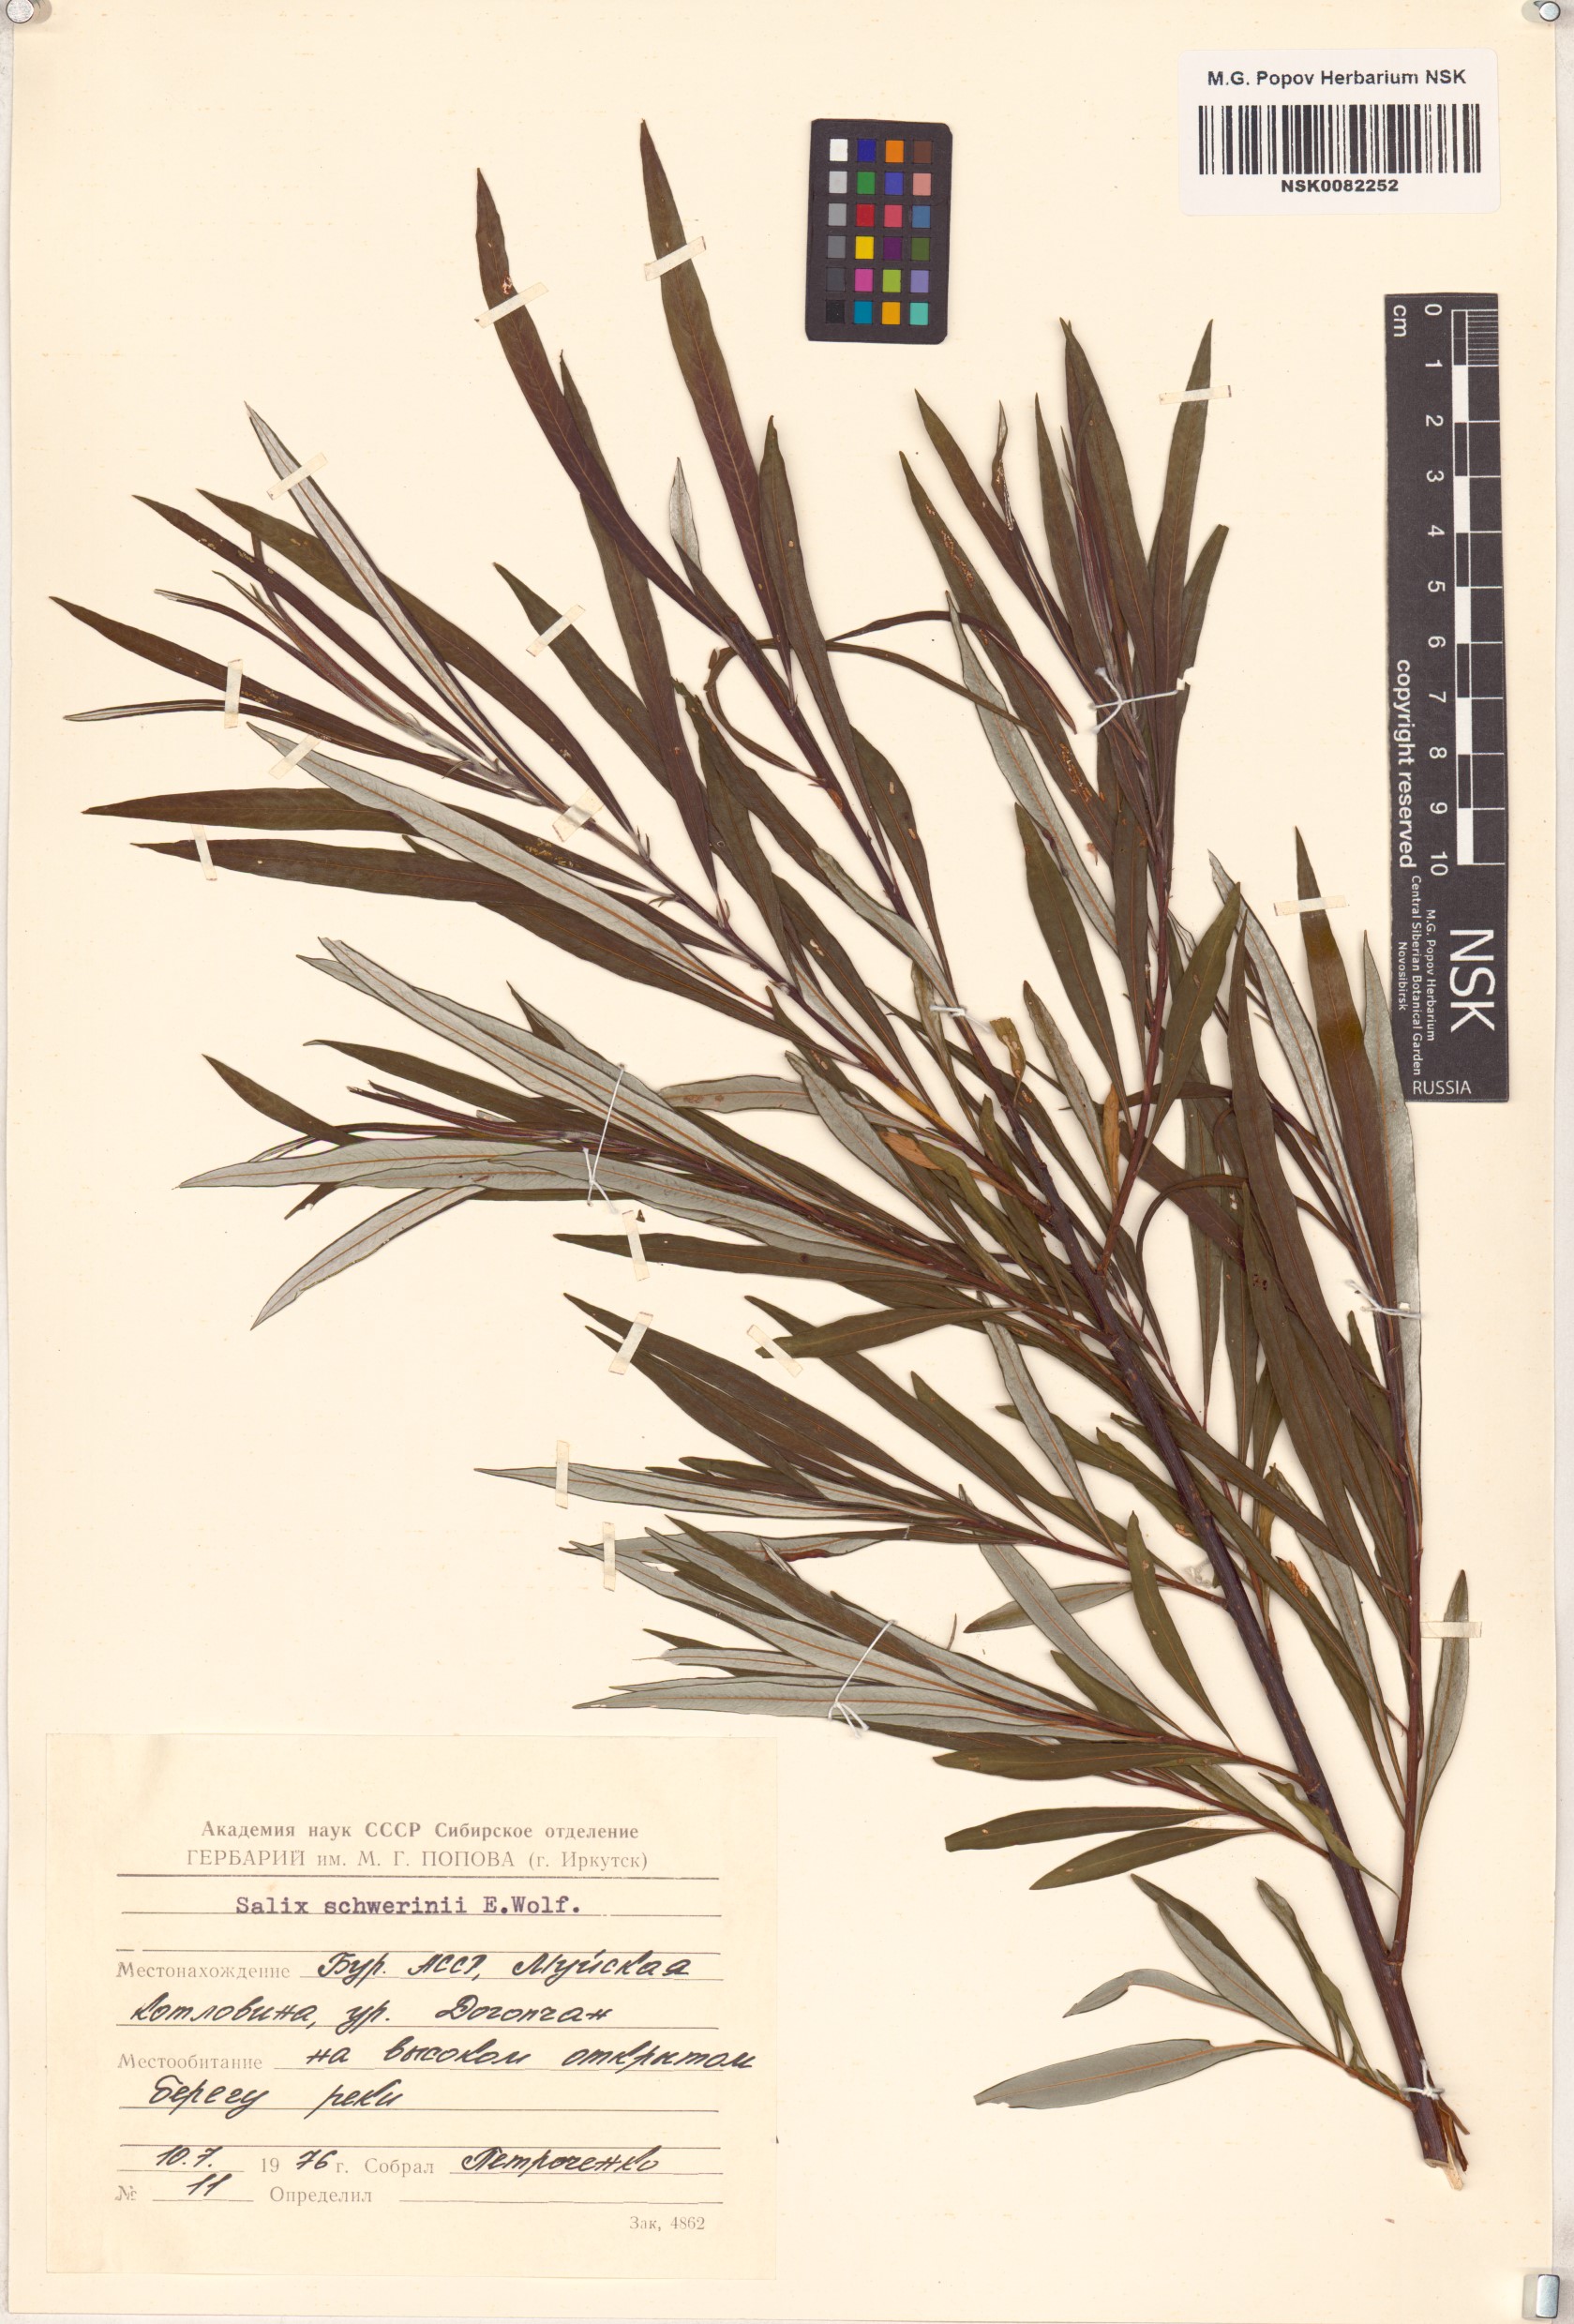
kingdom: Plantae
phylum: Tracheophyta
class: Magnoliopsida
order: Malpighiales
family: Salicaceae
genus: Salix
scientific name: Salix schwerinii
